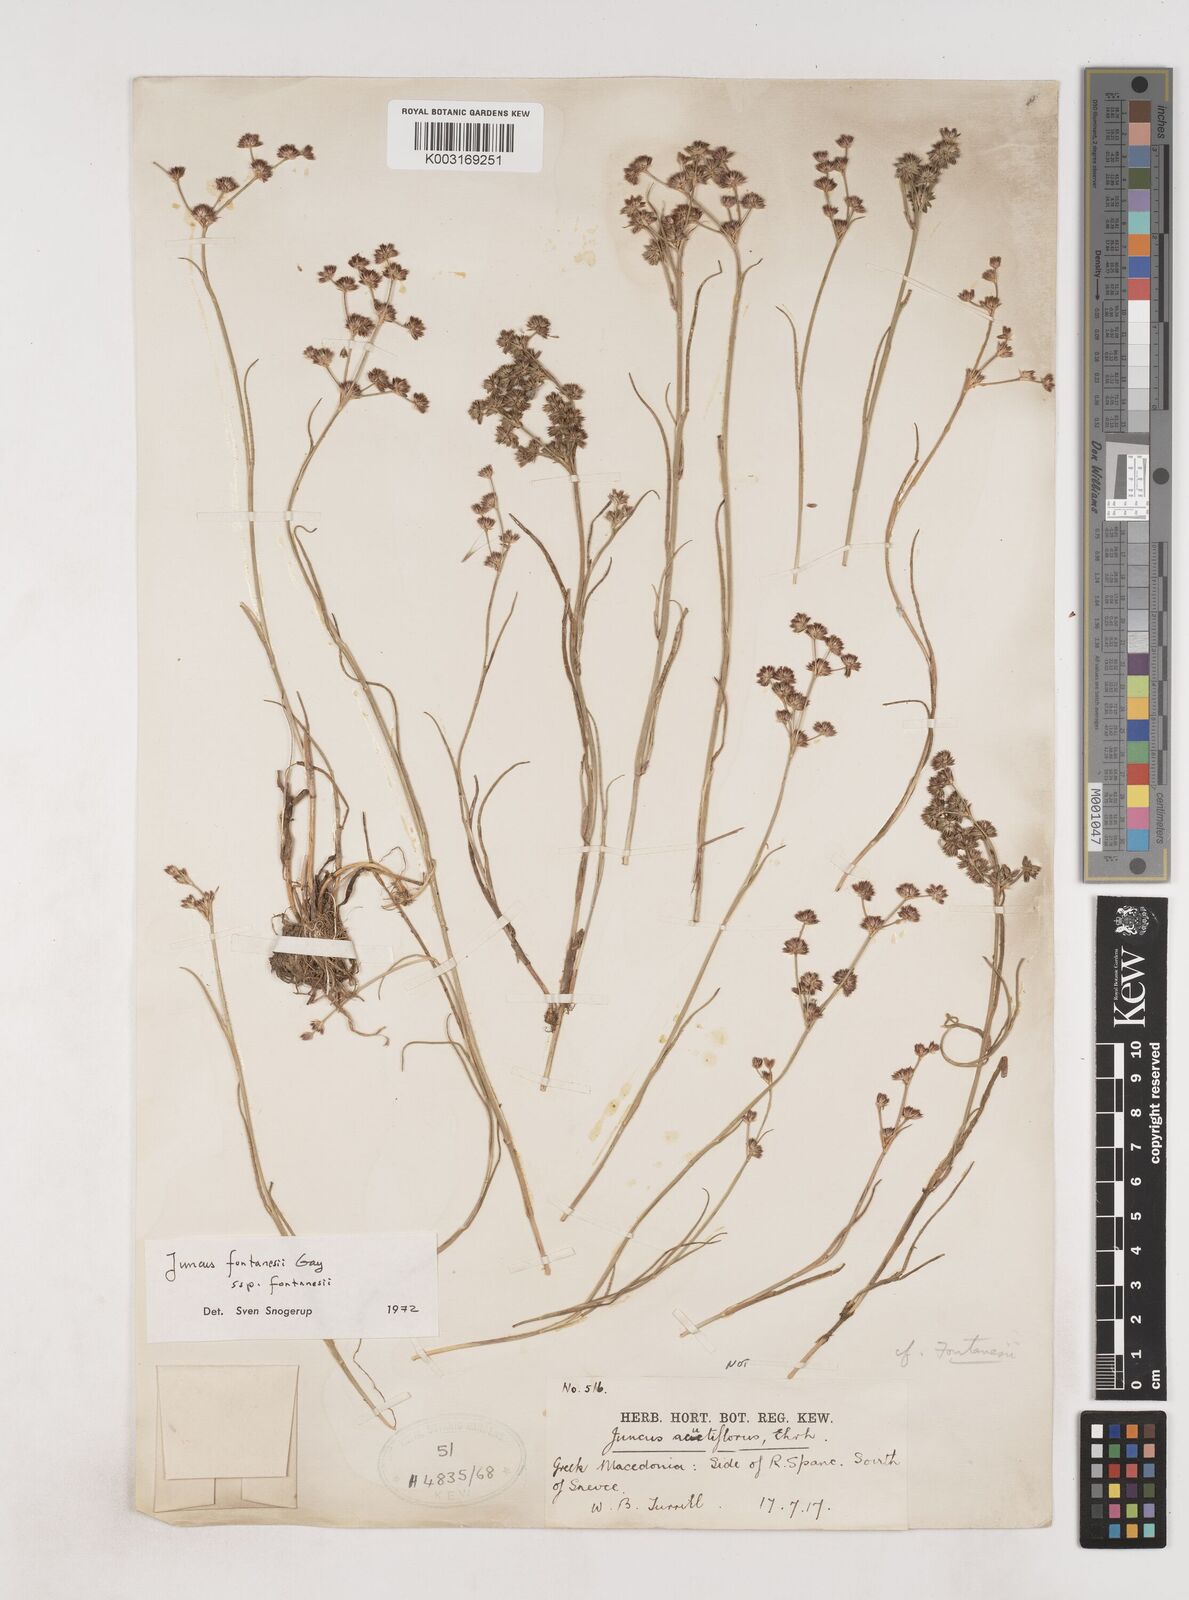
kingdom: Plantae
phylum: Tracheophyta
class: Liliopsida
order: Poales
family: Juncaceae
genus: Juncus
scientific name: Juncus fontanesii
